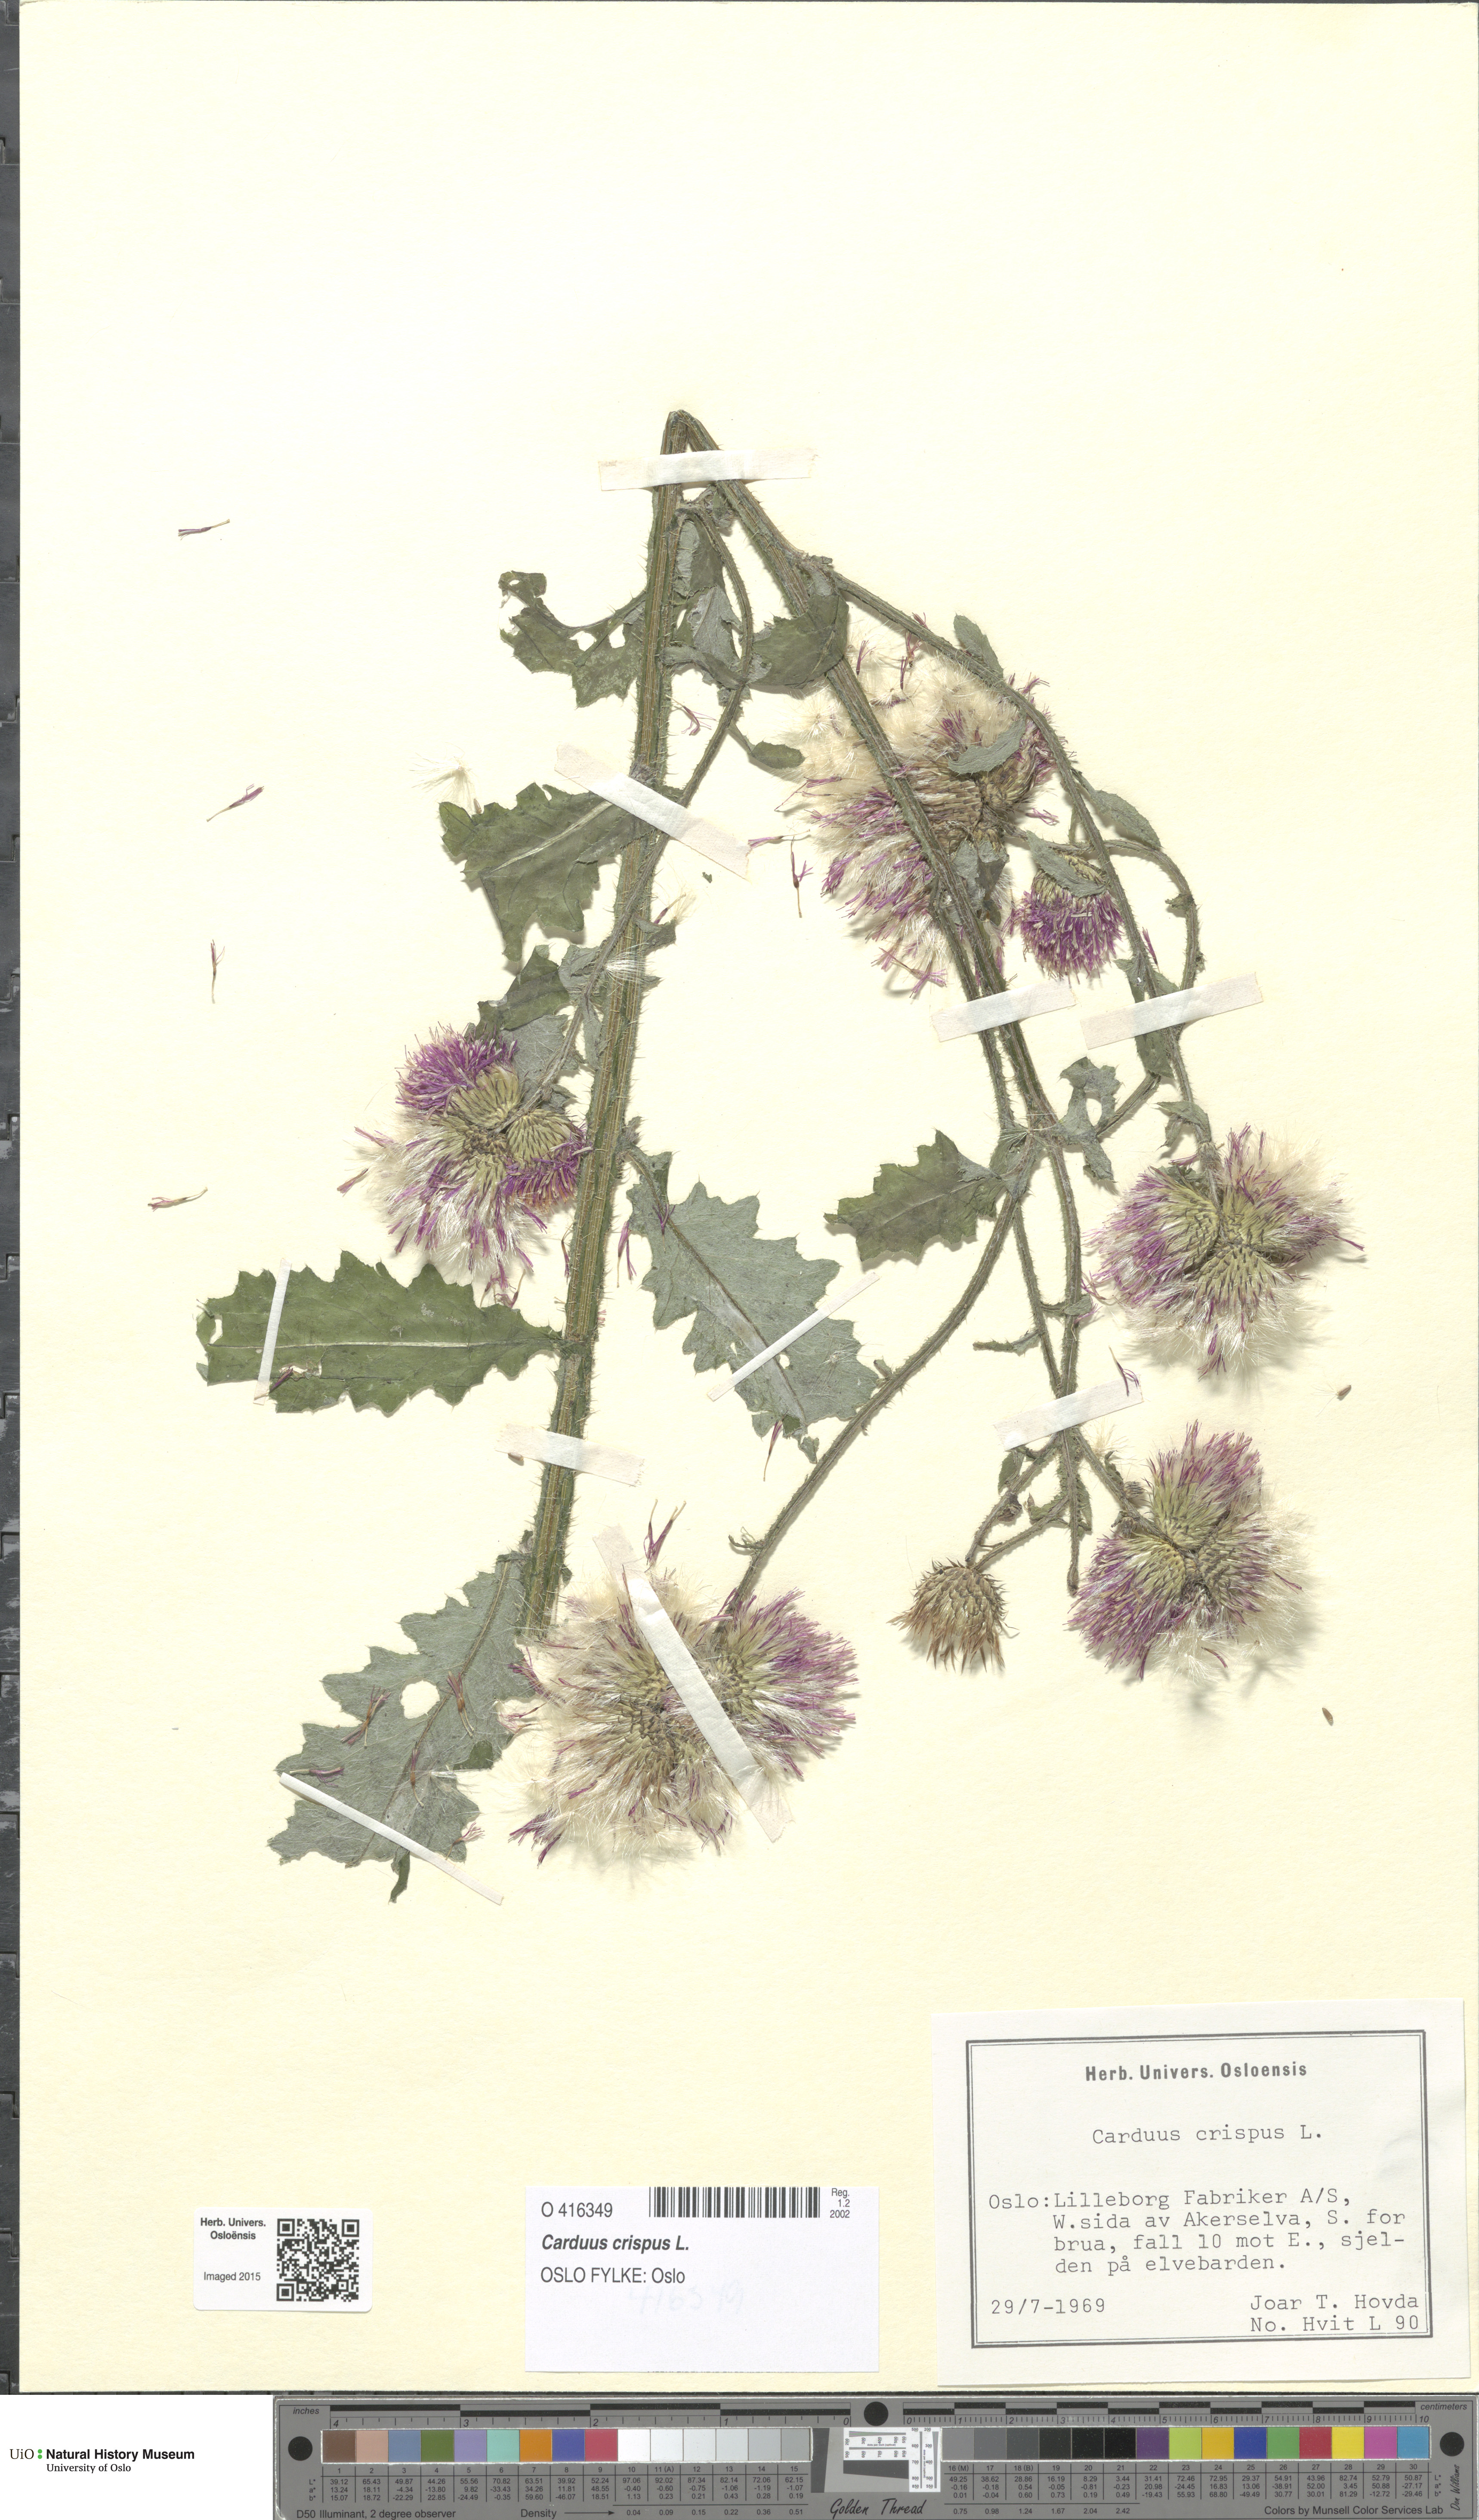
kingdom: Plantae
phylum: Tracheophyta
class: Magnoliopsida
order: Asterales
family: Asteraceae
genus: Carduus
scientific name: Carduus crispus
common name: Welted thistle
